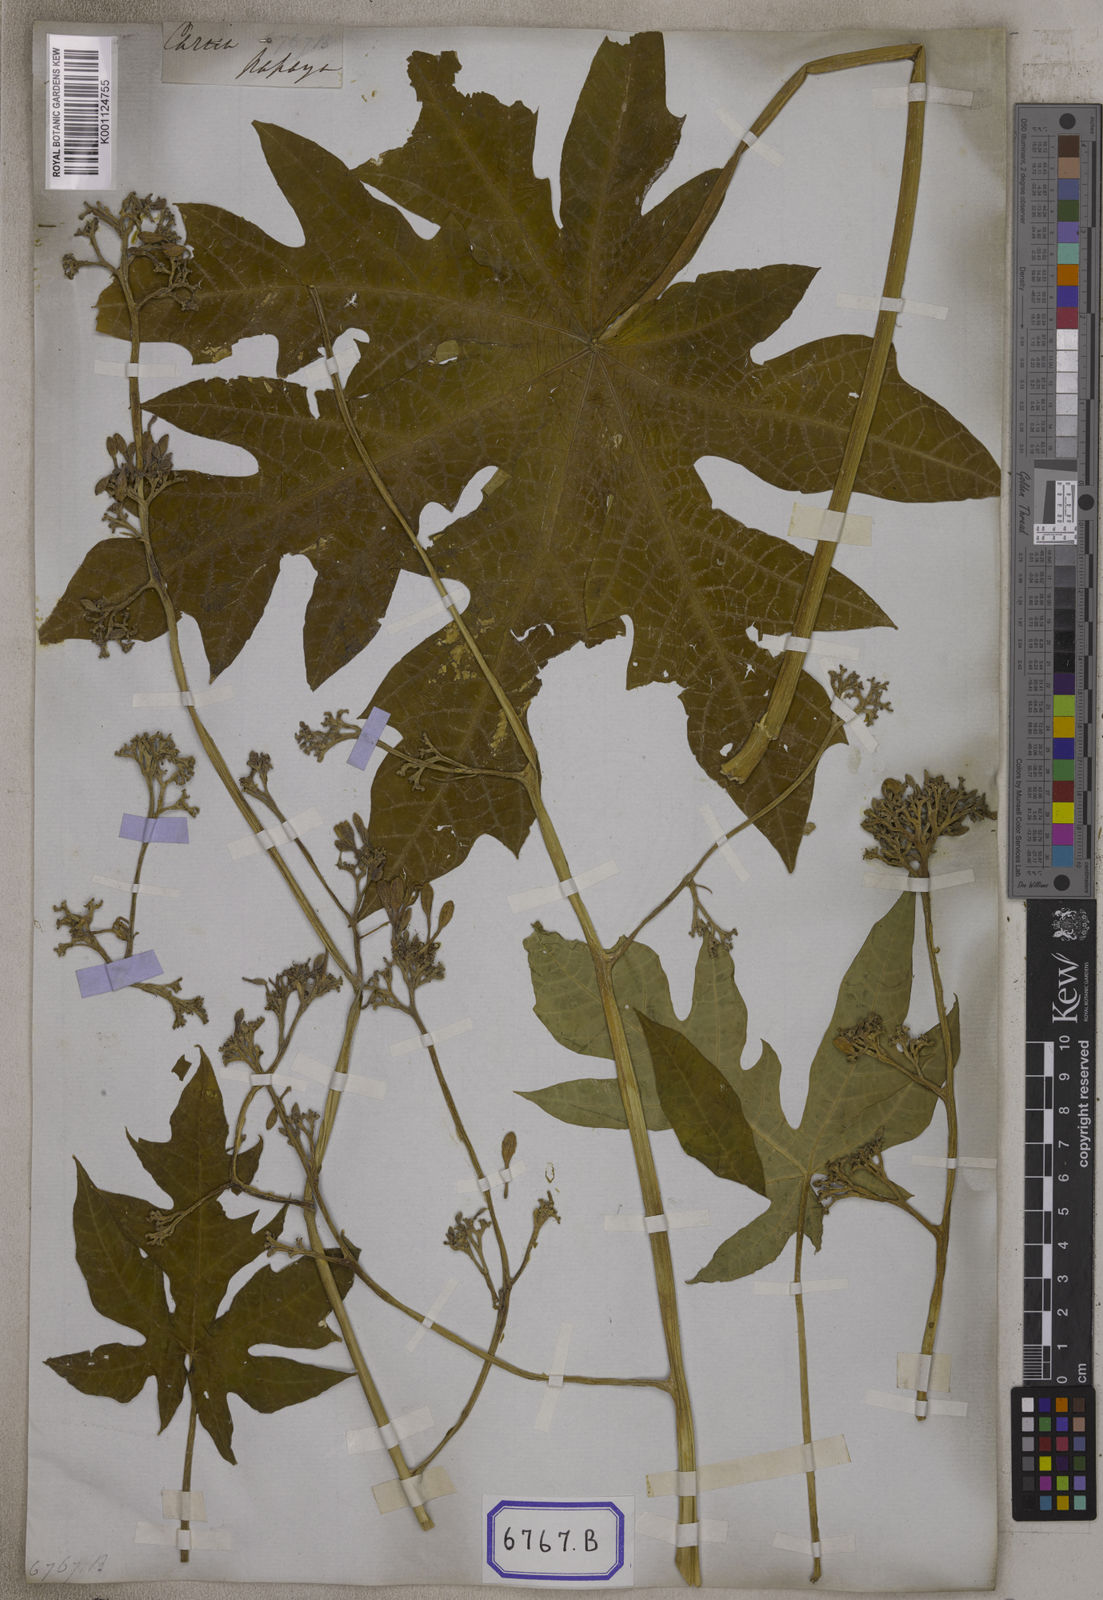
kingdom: Plantae
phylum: Tracheophyta
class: Magnoliopsida
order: Brassicales
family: Caricaceae
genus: Carica
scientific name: Carica papaya
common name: Papaya
